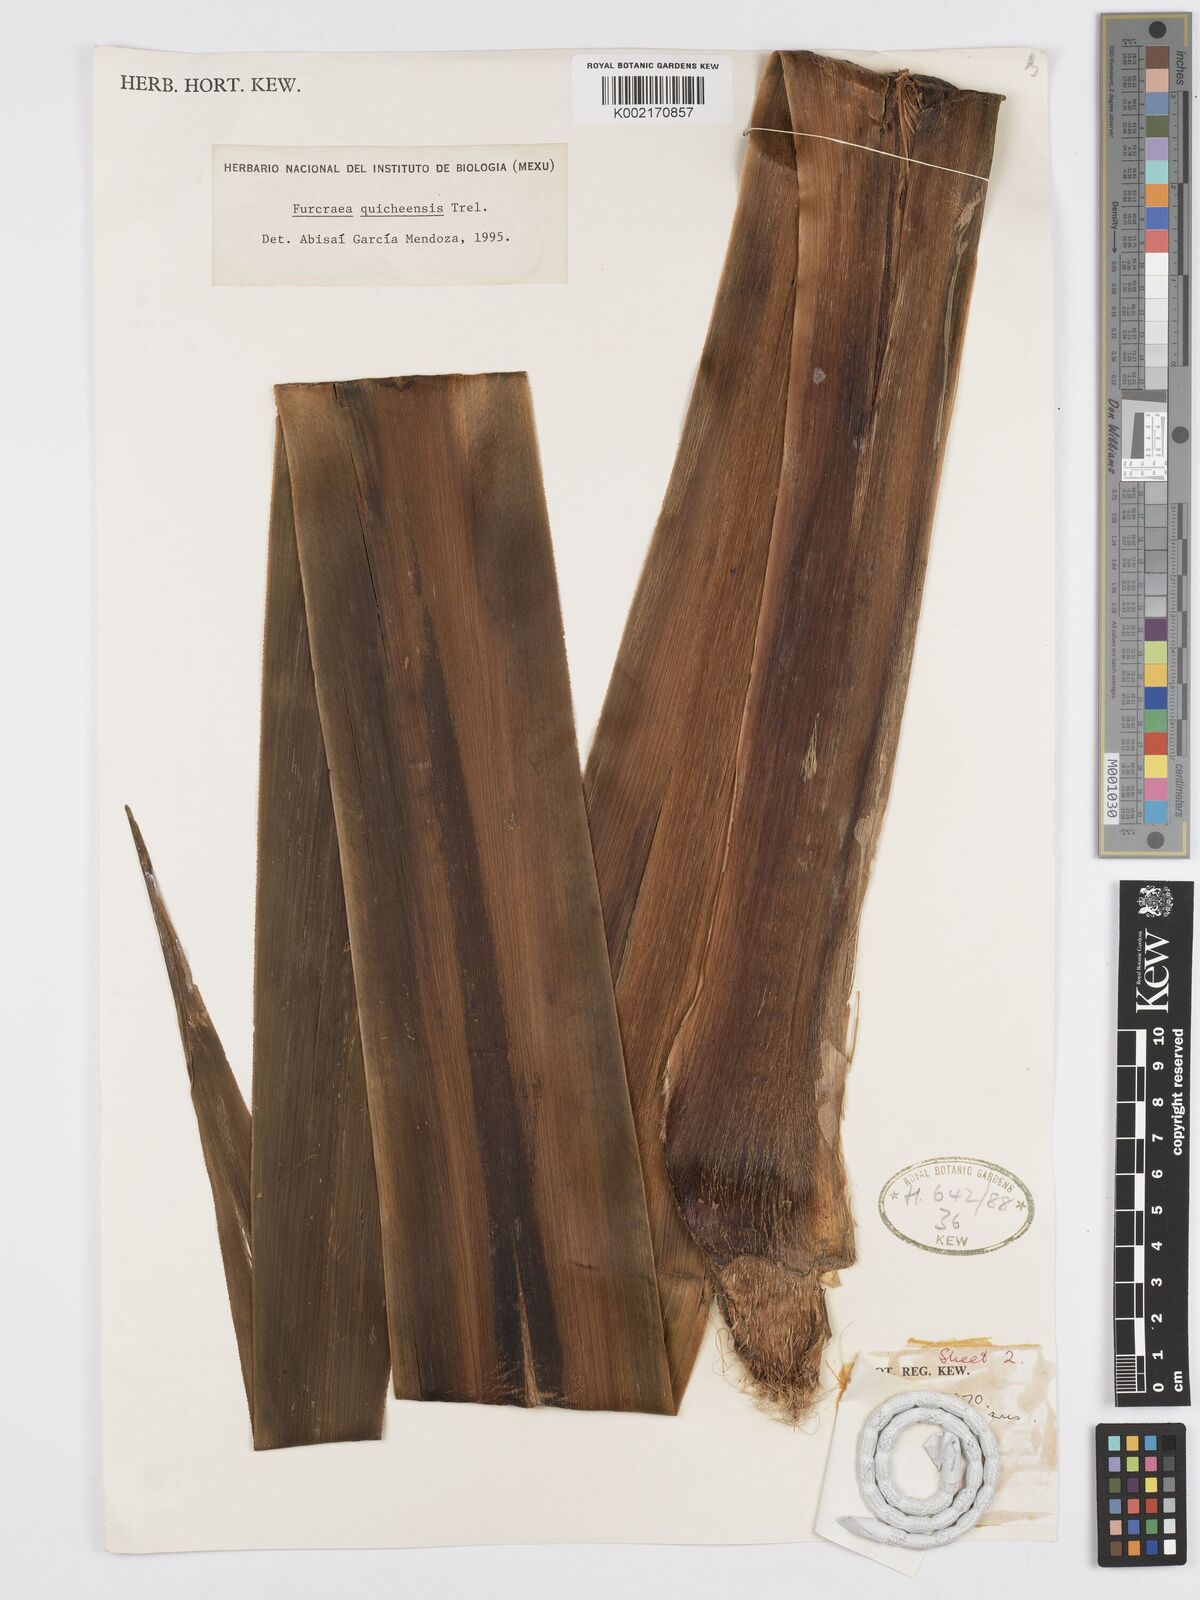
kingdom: Plantae
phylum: Tracheophyta
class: Liliopsida
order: Asparagales
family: Asparagaceae
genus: Furcraea
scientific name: Furcraea quicheensis
